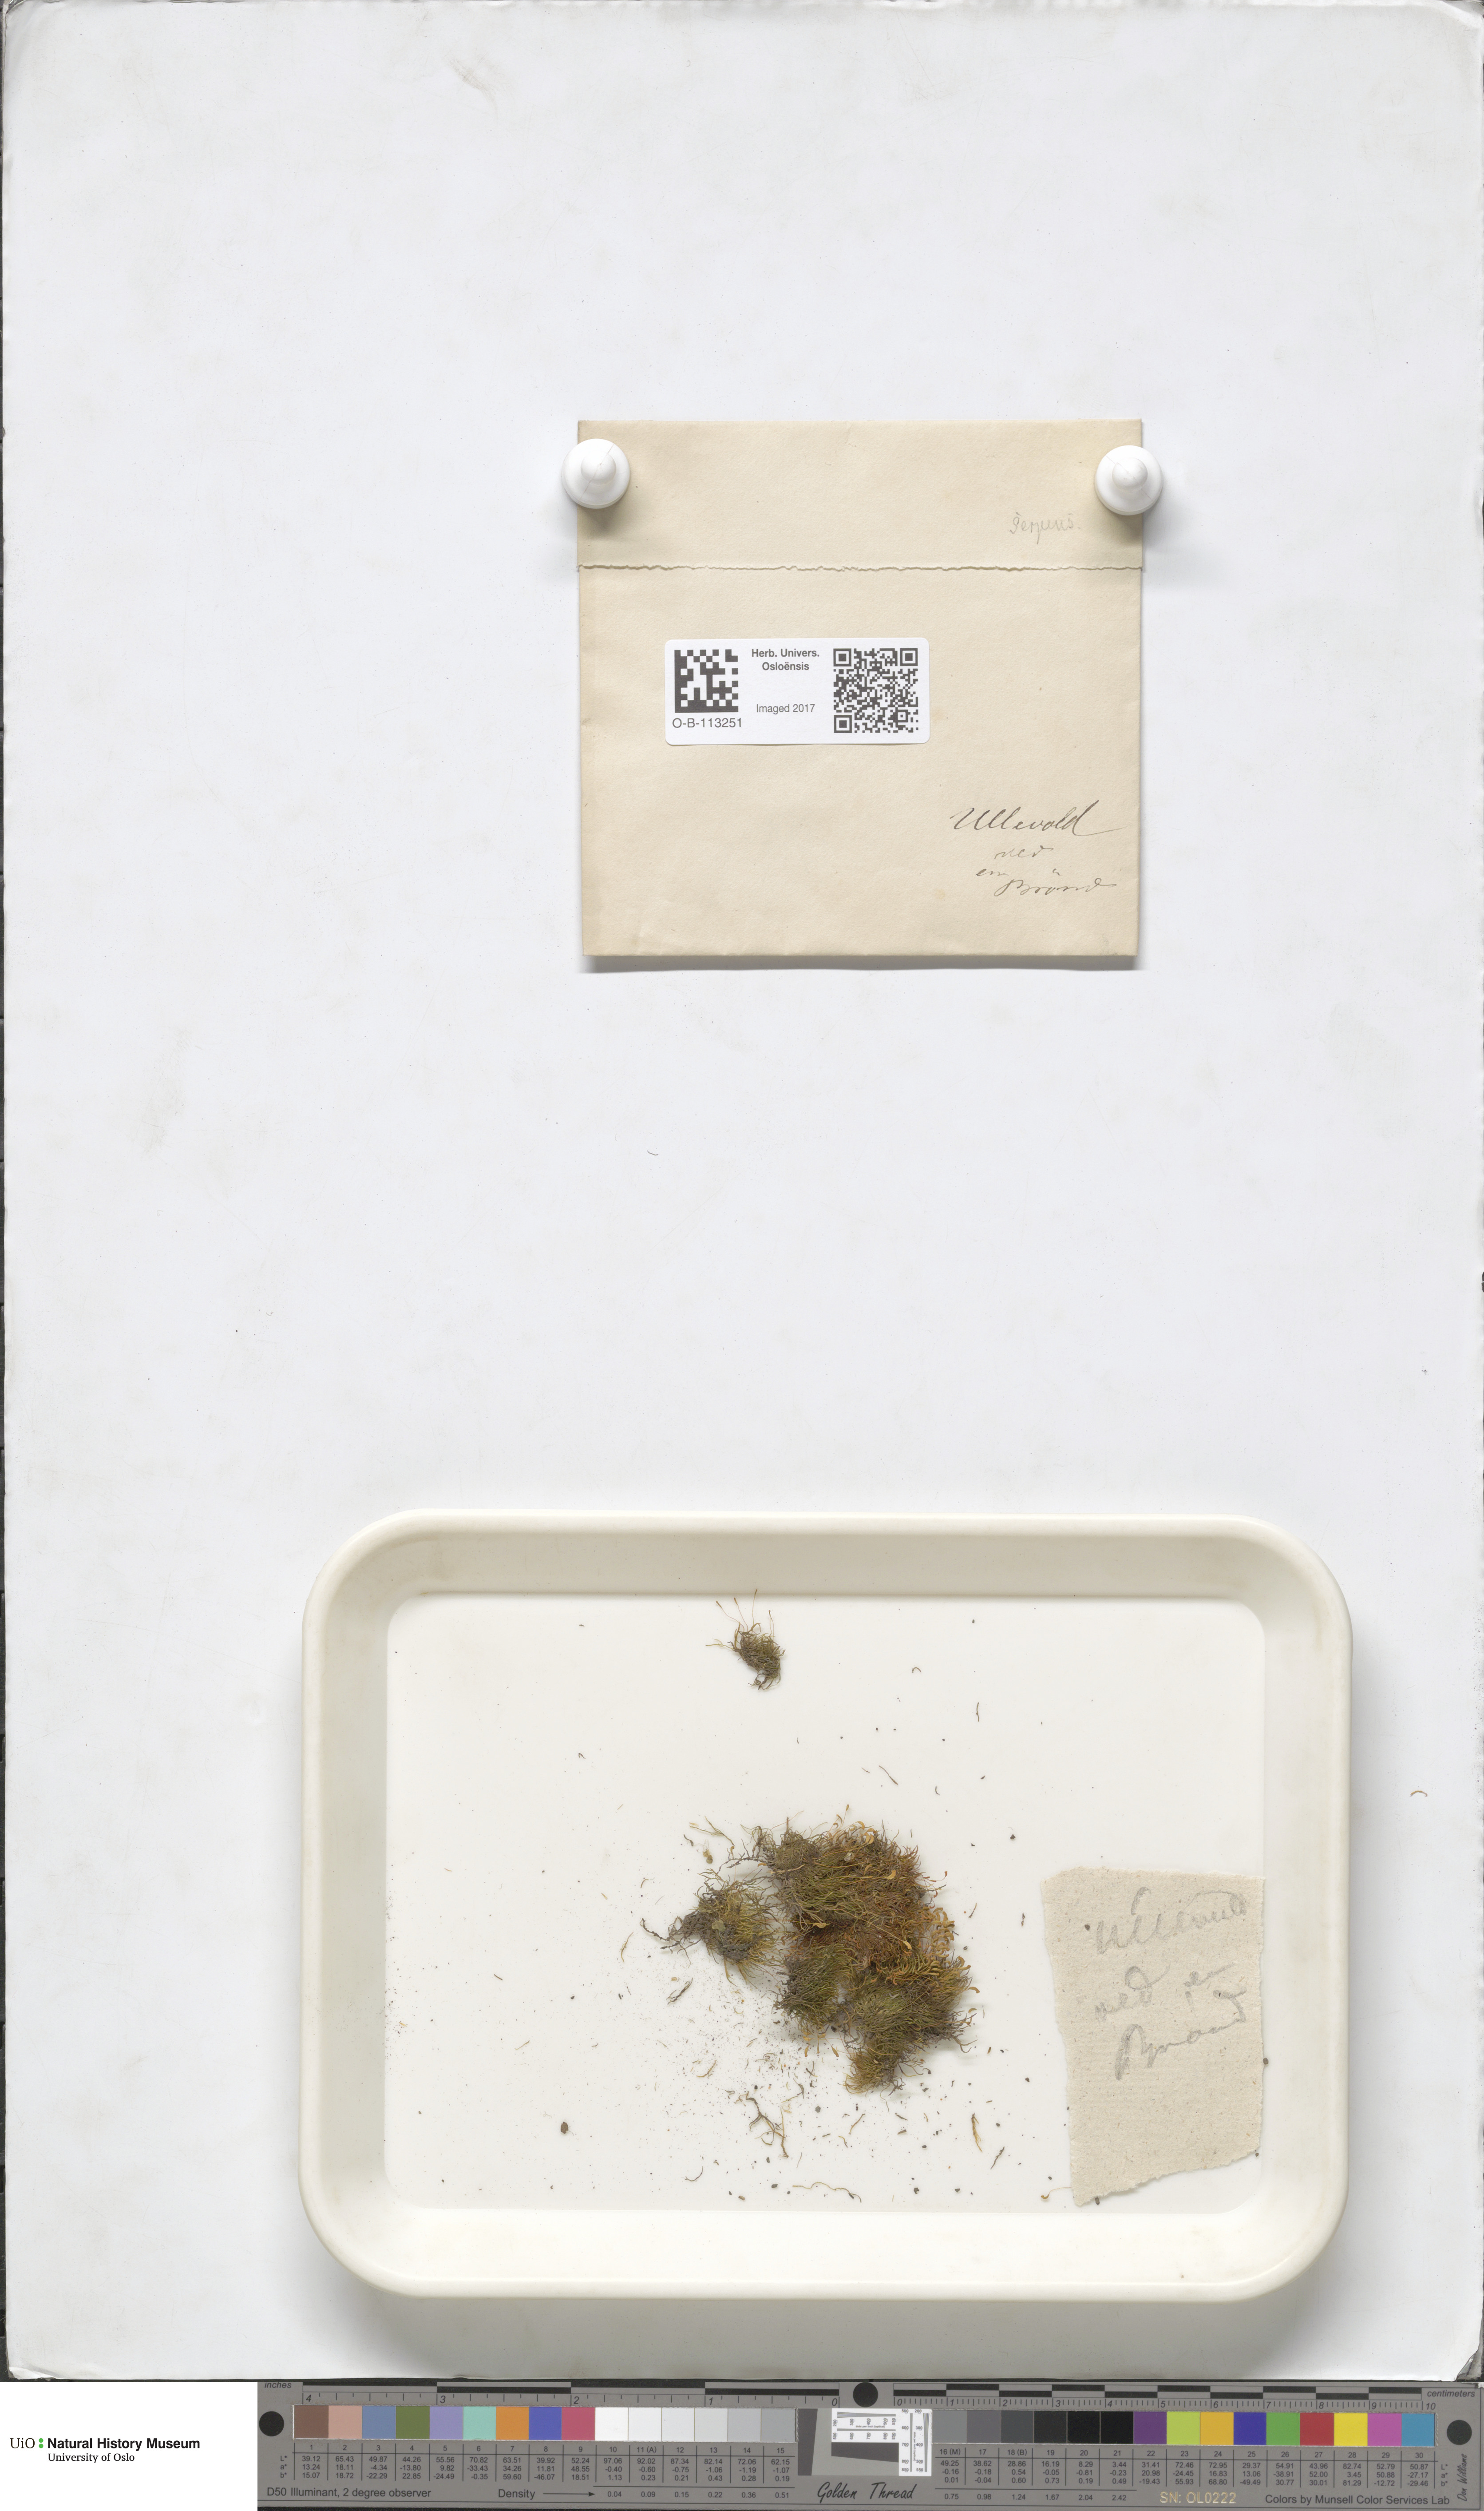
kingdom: Plantae
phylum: Bryophyta
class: Bryopsida
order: Hypnales
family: Amblystegiaceae
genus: Amblystegium
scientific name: Amblystegium serpens
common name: Jurkatzka's feather moss
